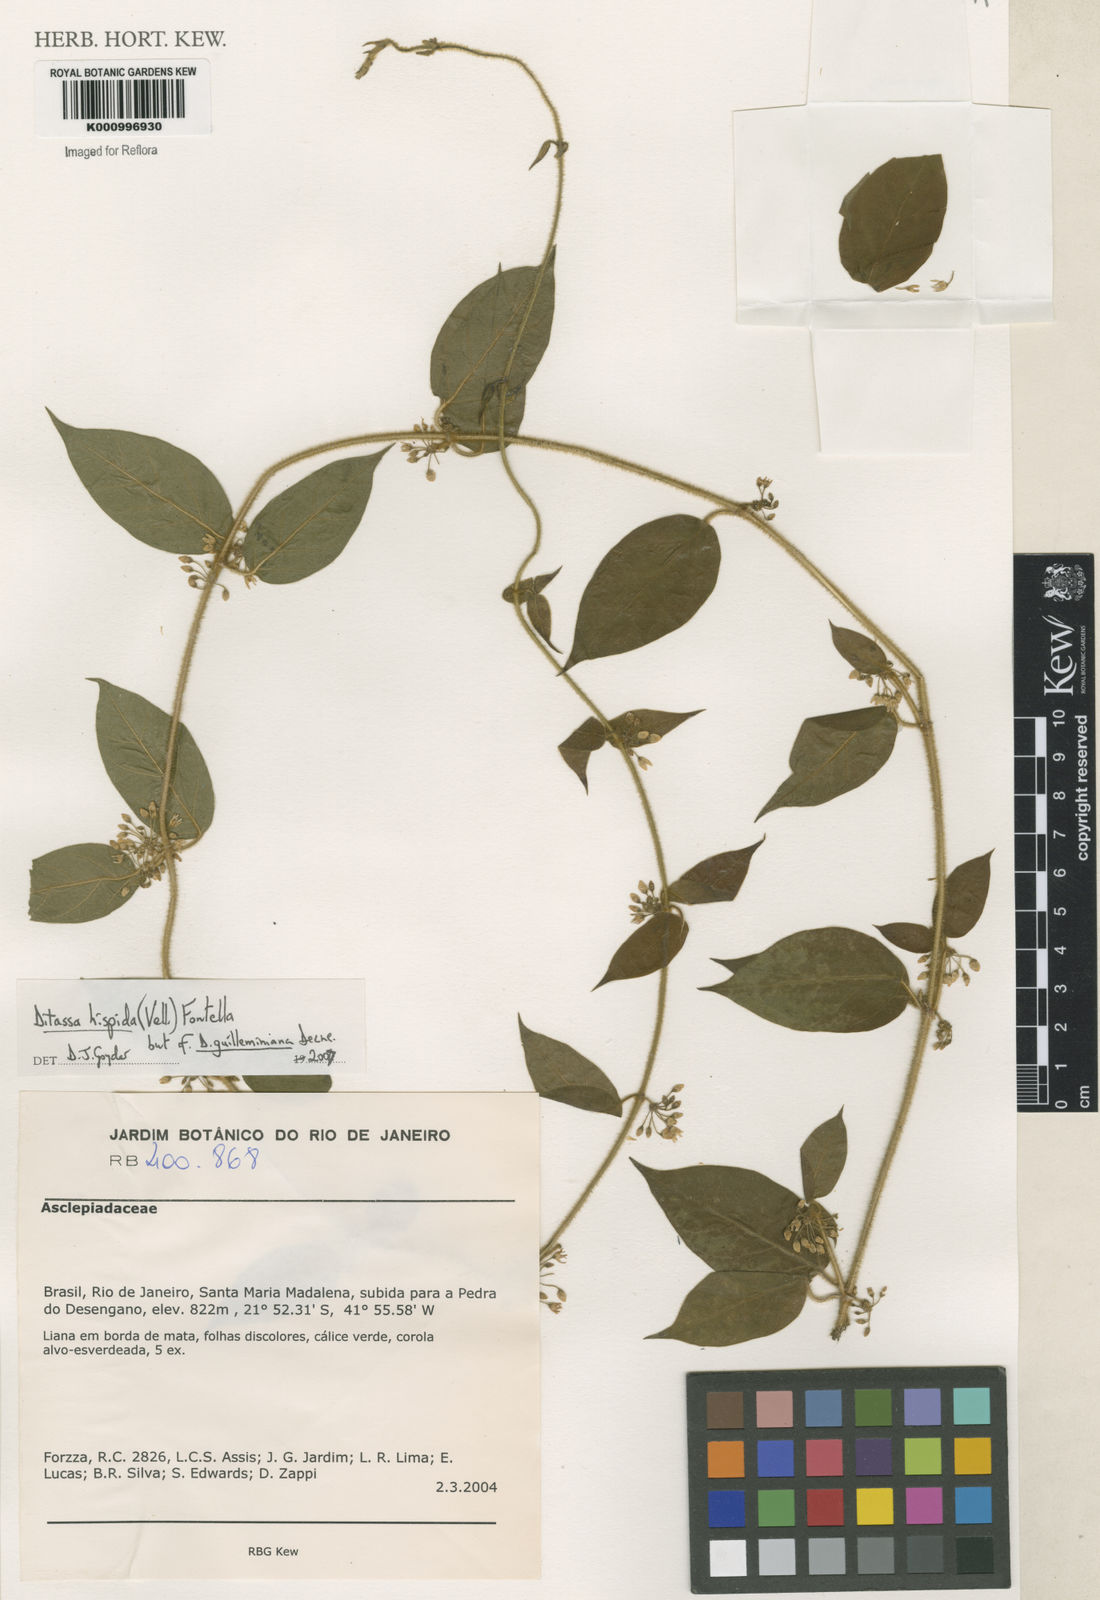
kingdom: Plantae
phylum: Tracheophyta
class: Magnoliopsida
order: Gentianales
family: Apocynaceae
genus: Ditassa
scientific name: Ditassa hispida
